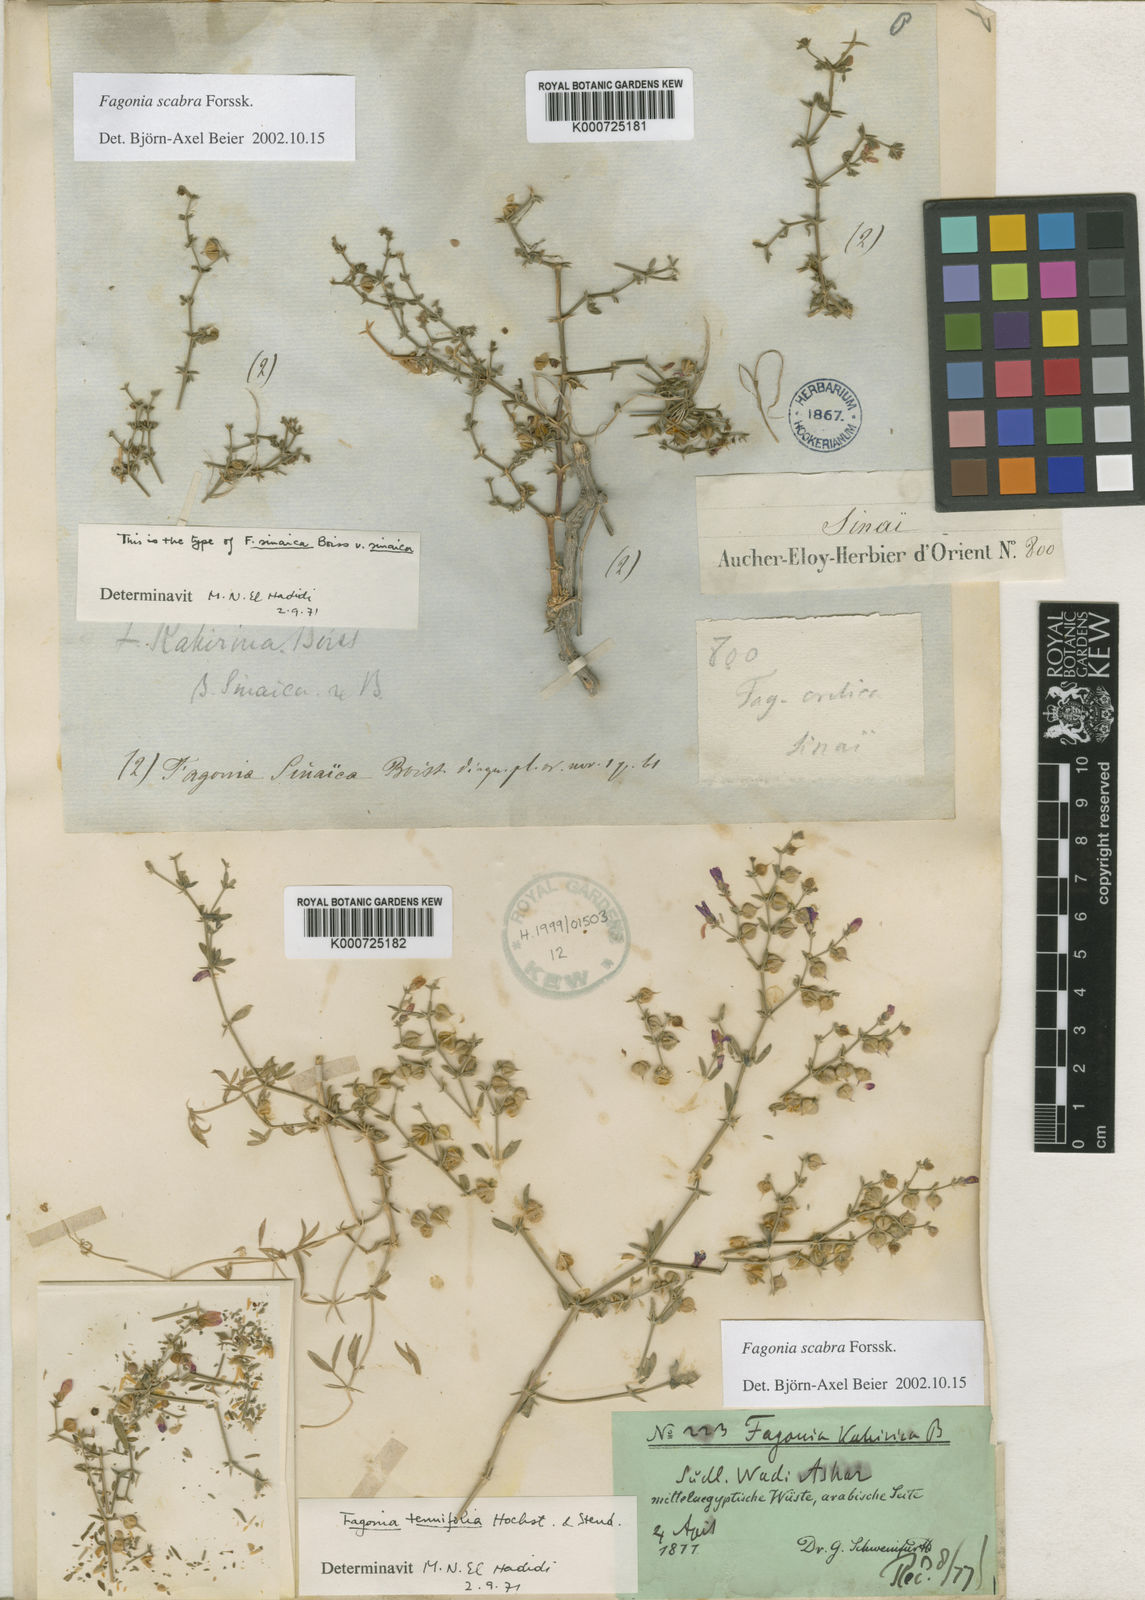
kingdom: Plantae
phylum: Tracheophyta
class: Magnoliopsida
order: Zygophyllales
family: Zygophyllaceae
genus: Fagonia
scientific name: Fagonia scabra
